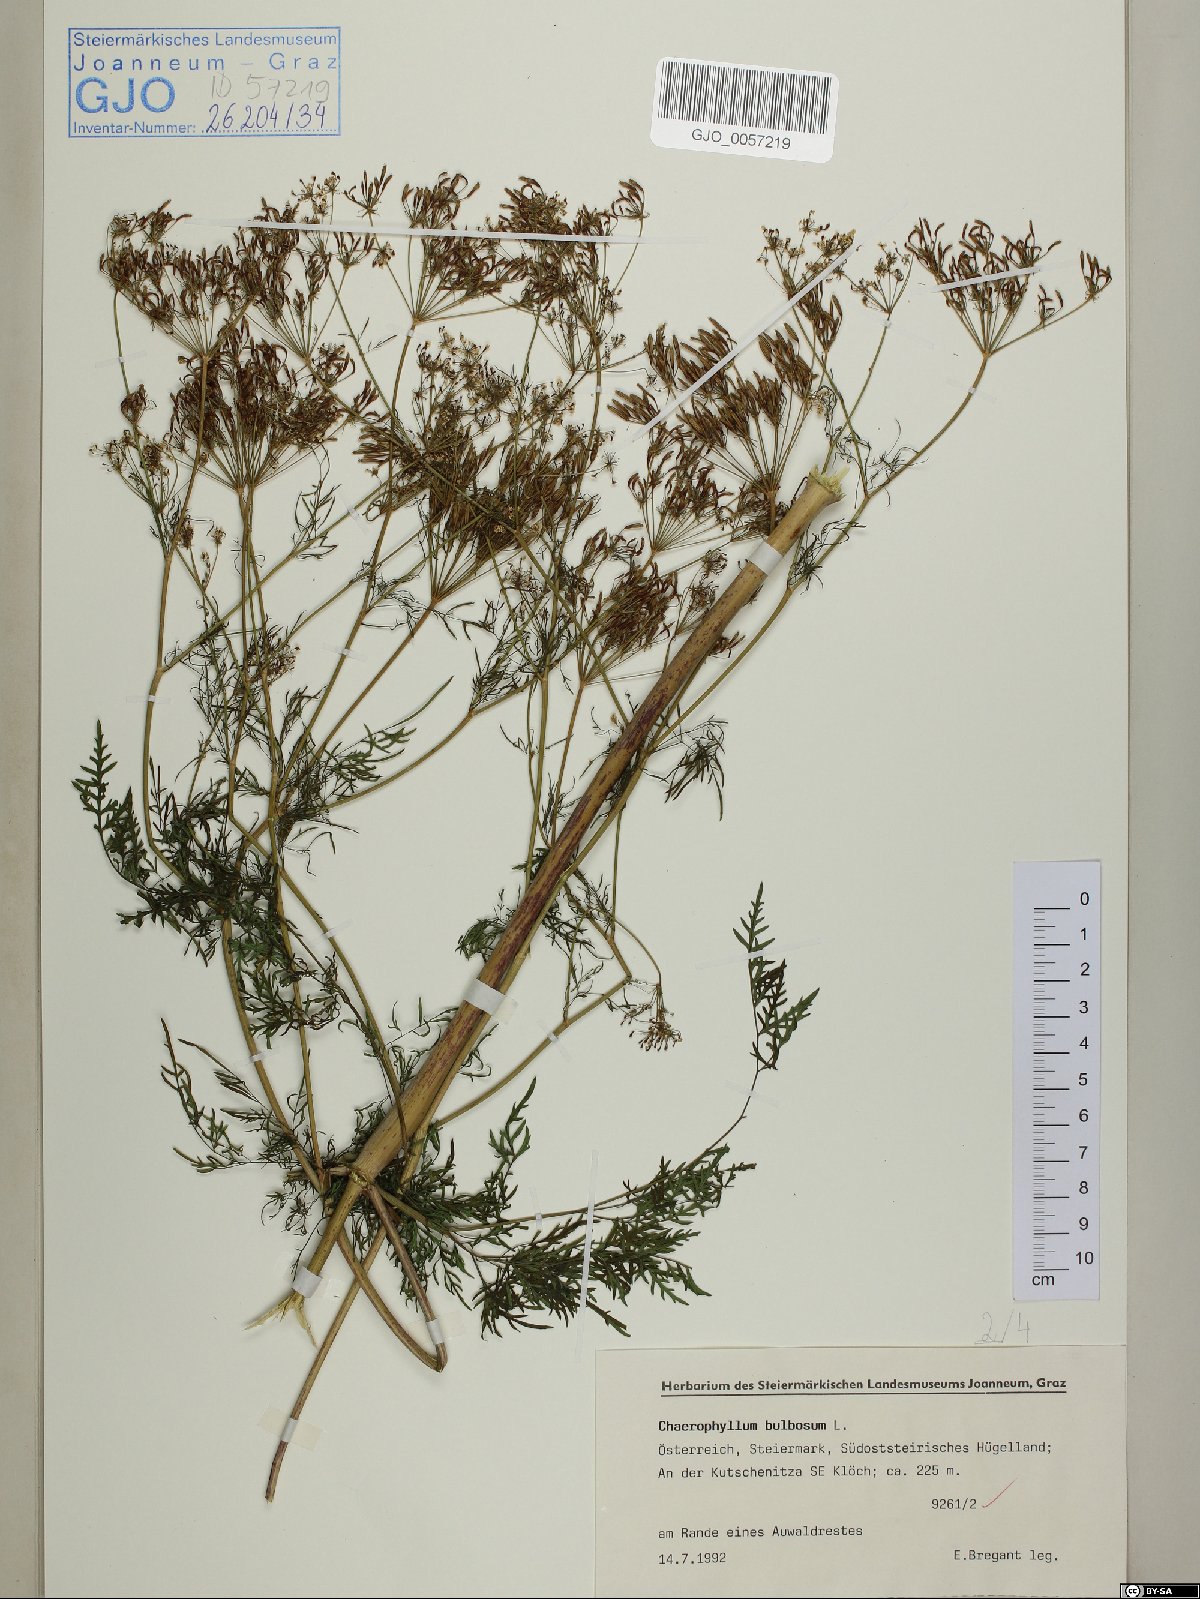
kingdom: Plantae
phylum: Tracheophyta
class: Magnoliopsida
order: Apiales
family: Apiaceae
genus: Chaerophyllum
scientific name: Chaerophyllum bulbosum
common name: Bulbous chervil
